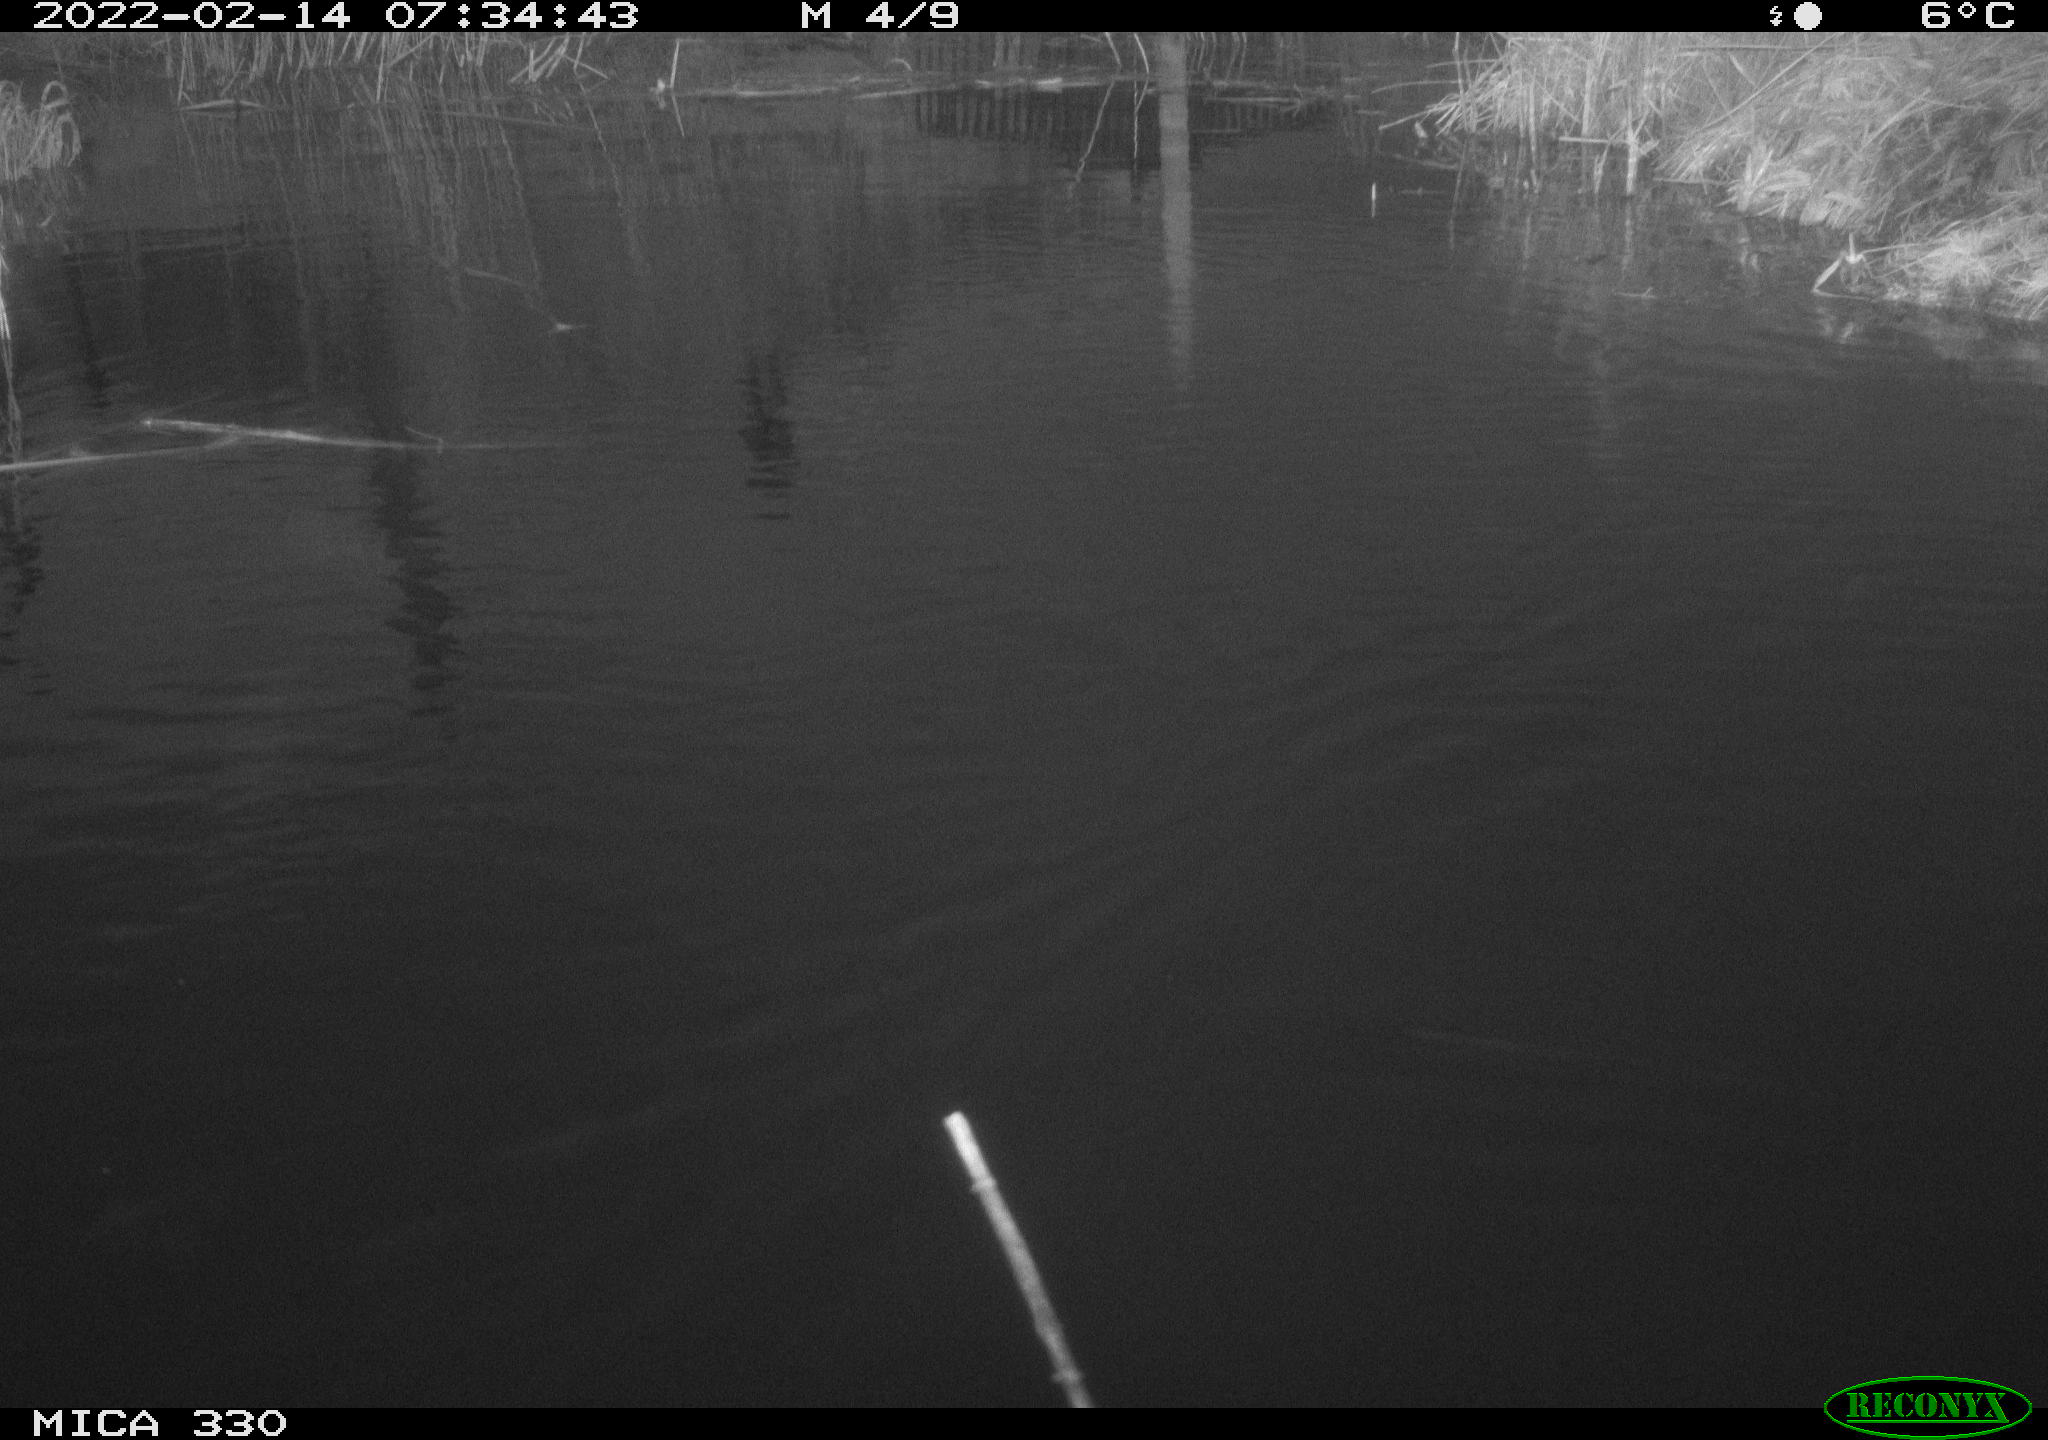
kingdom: Animalia
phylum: Chordata
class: Aves
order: Gruiformes
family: Rallidae
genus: Gallinula
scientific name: Gallinula chloropus
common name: Common moorhen
